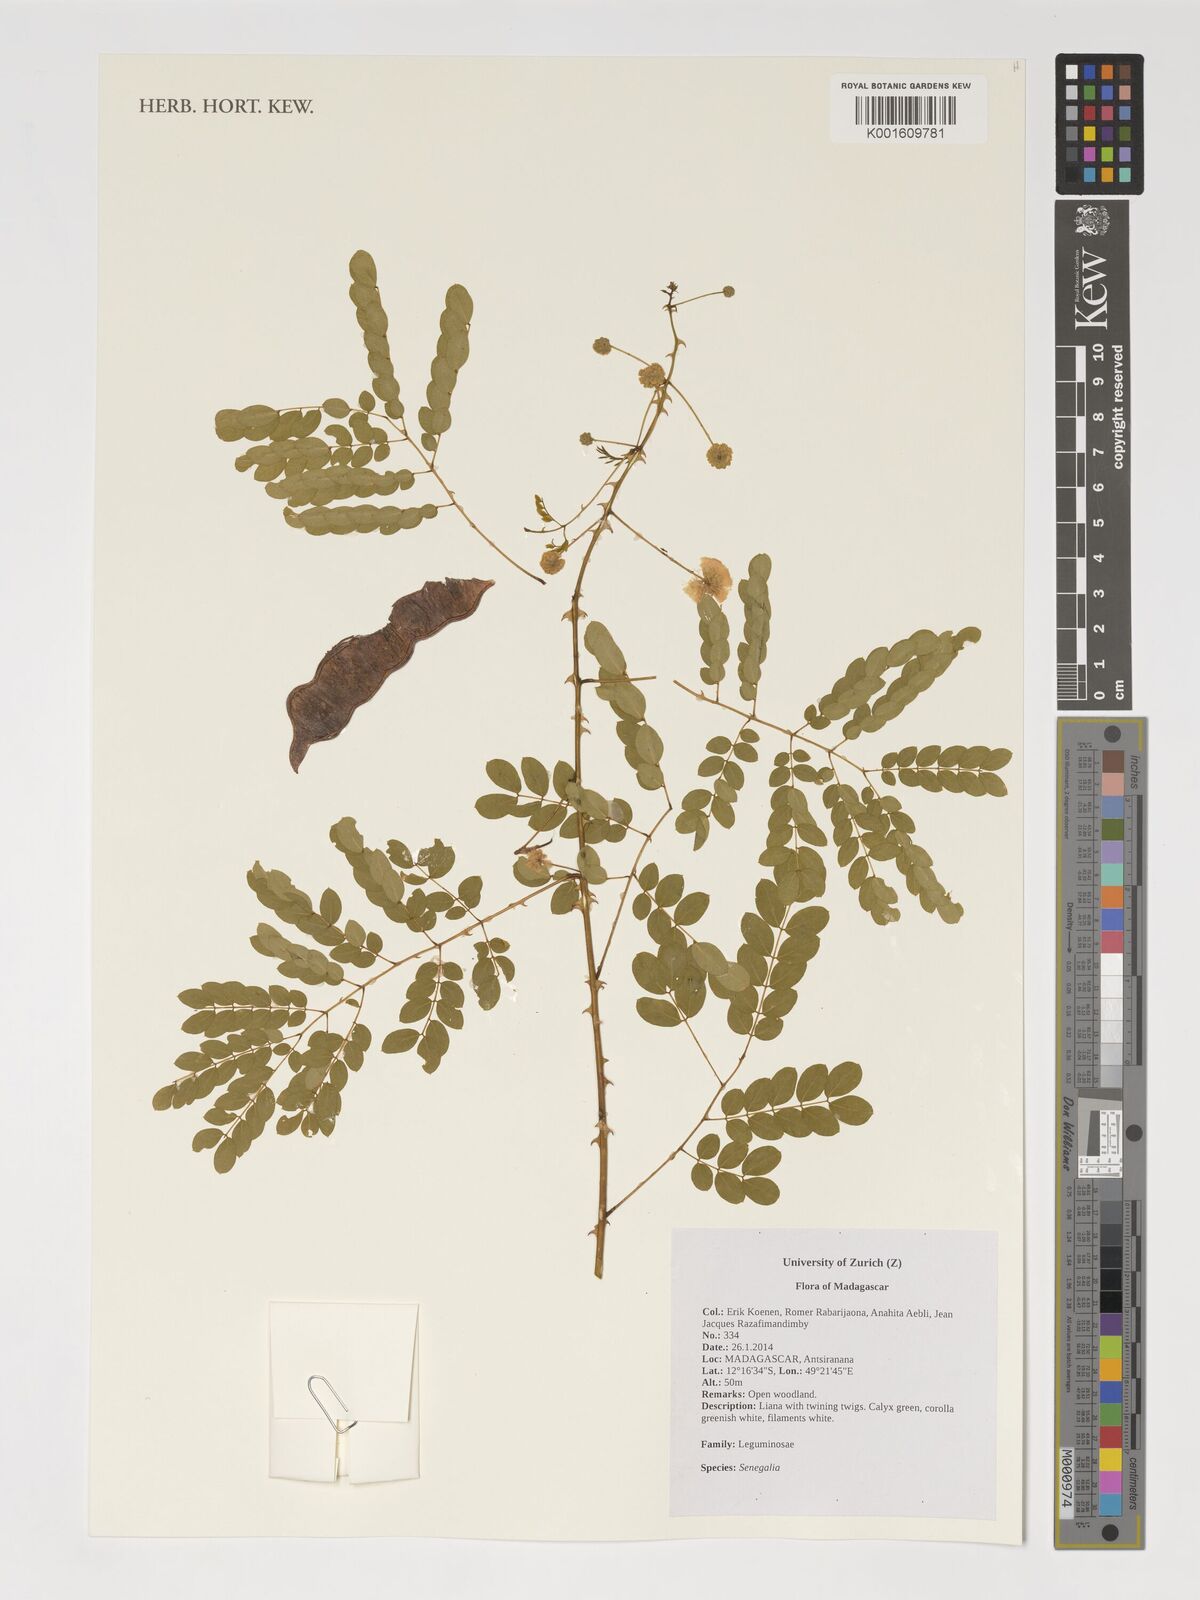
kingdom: Plantae
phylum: Tracheophyta
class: Magnoliopsida
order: Fabales
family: Fabaceae
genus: Senegalia
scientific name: Senegalia
